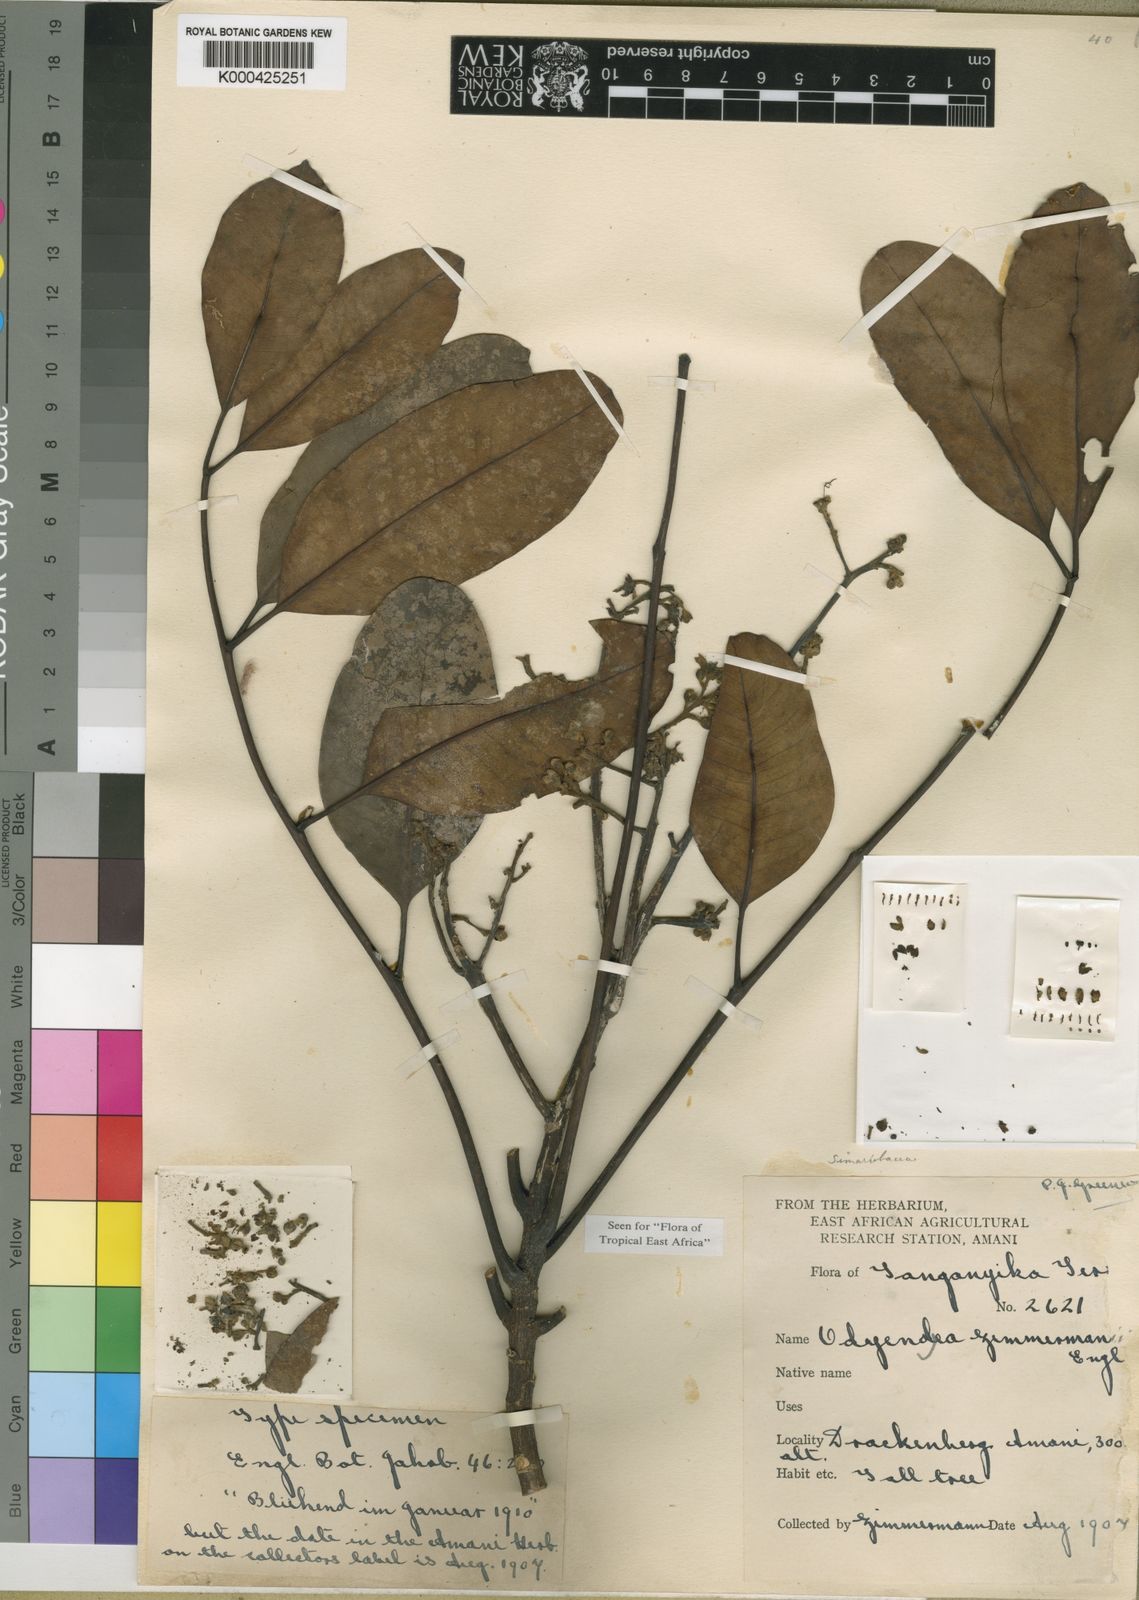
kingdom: Plantae
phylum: Tracheophyta
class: Magnoliopsida
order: Sapindales
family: Simaroubaceae
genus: Odyendyea
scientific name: Odyendyea klaineana
